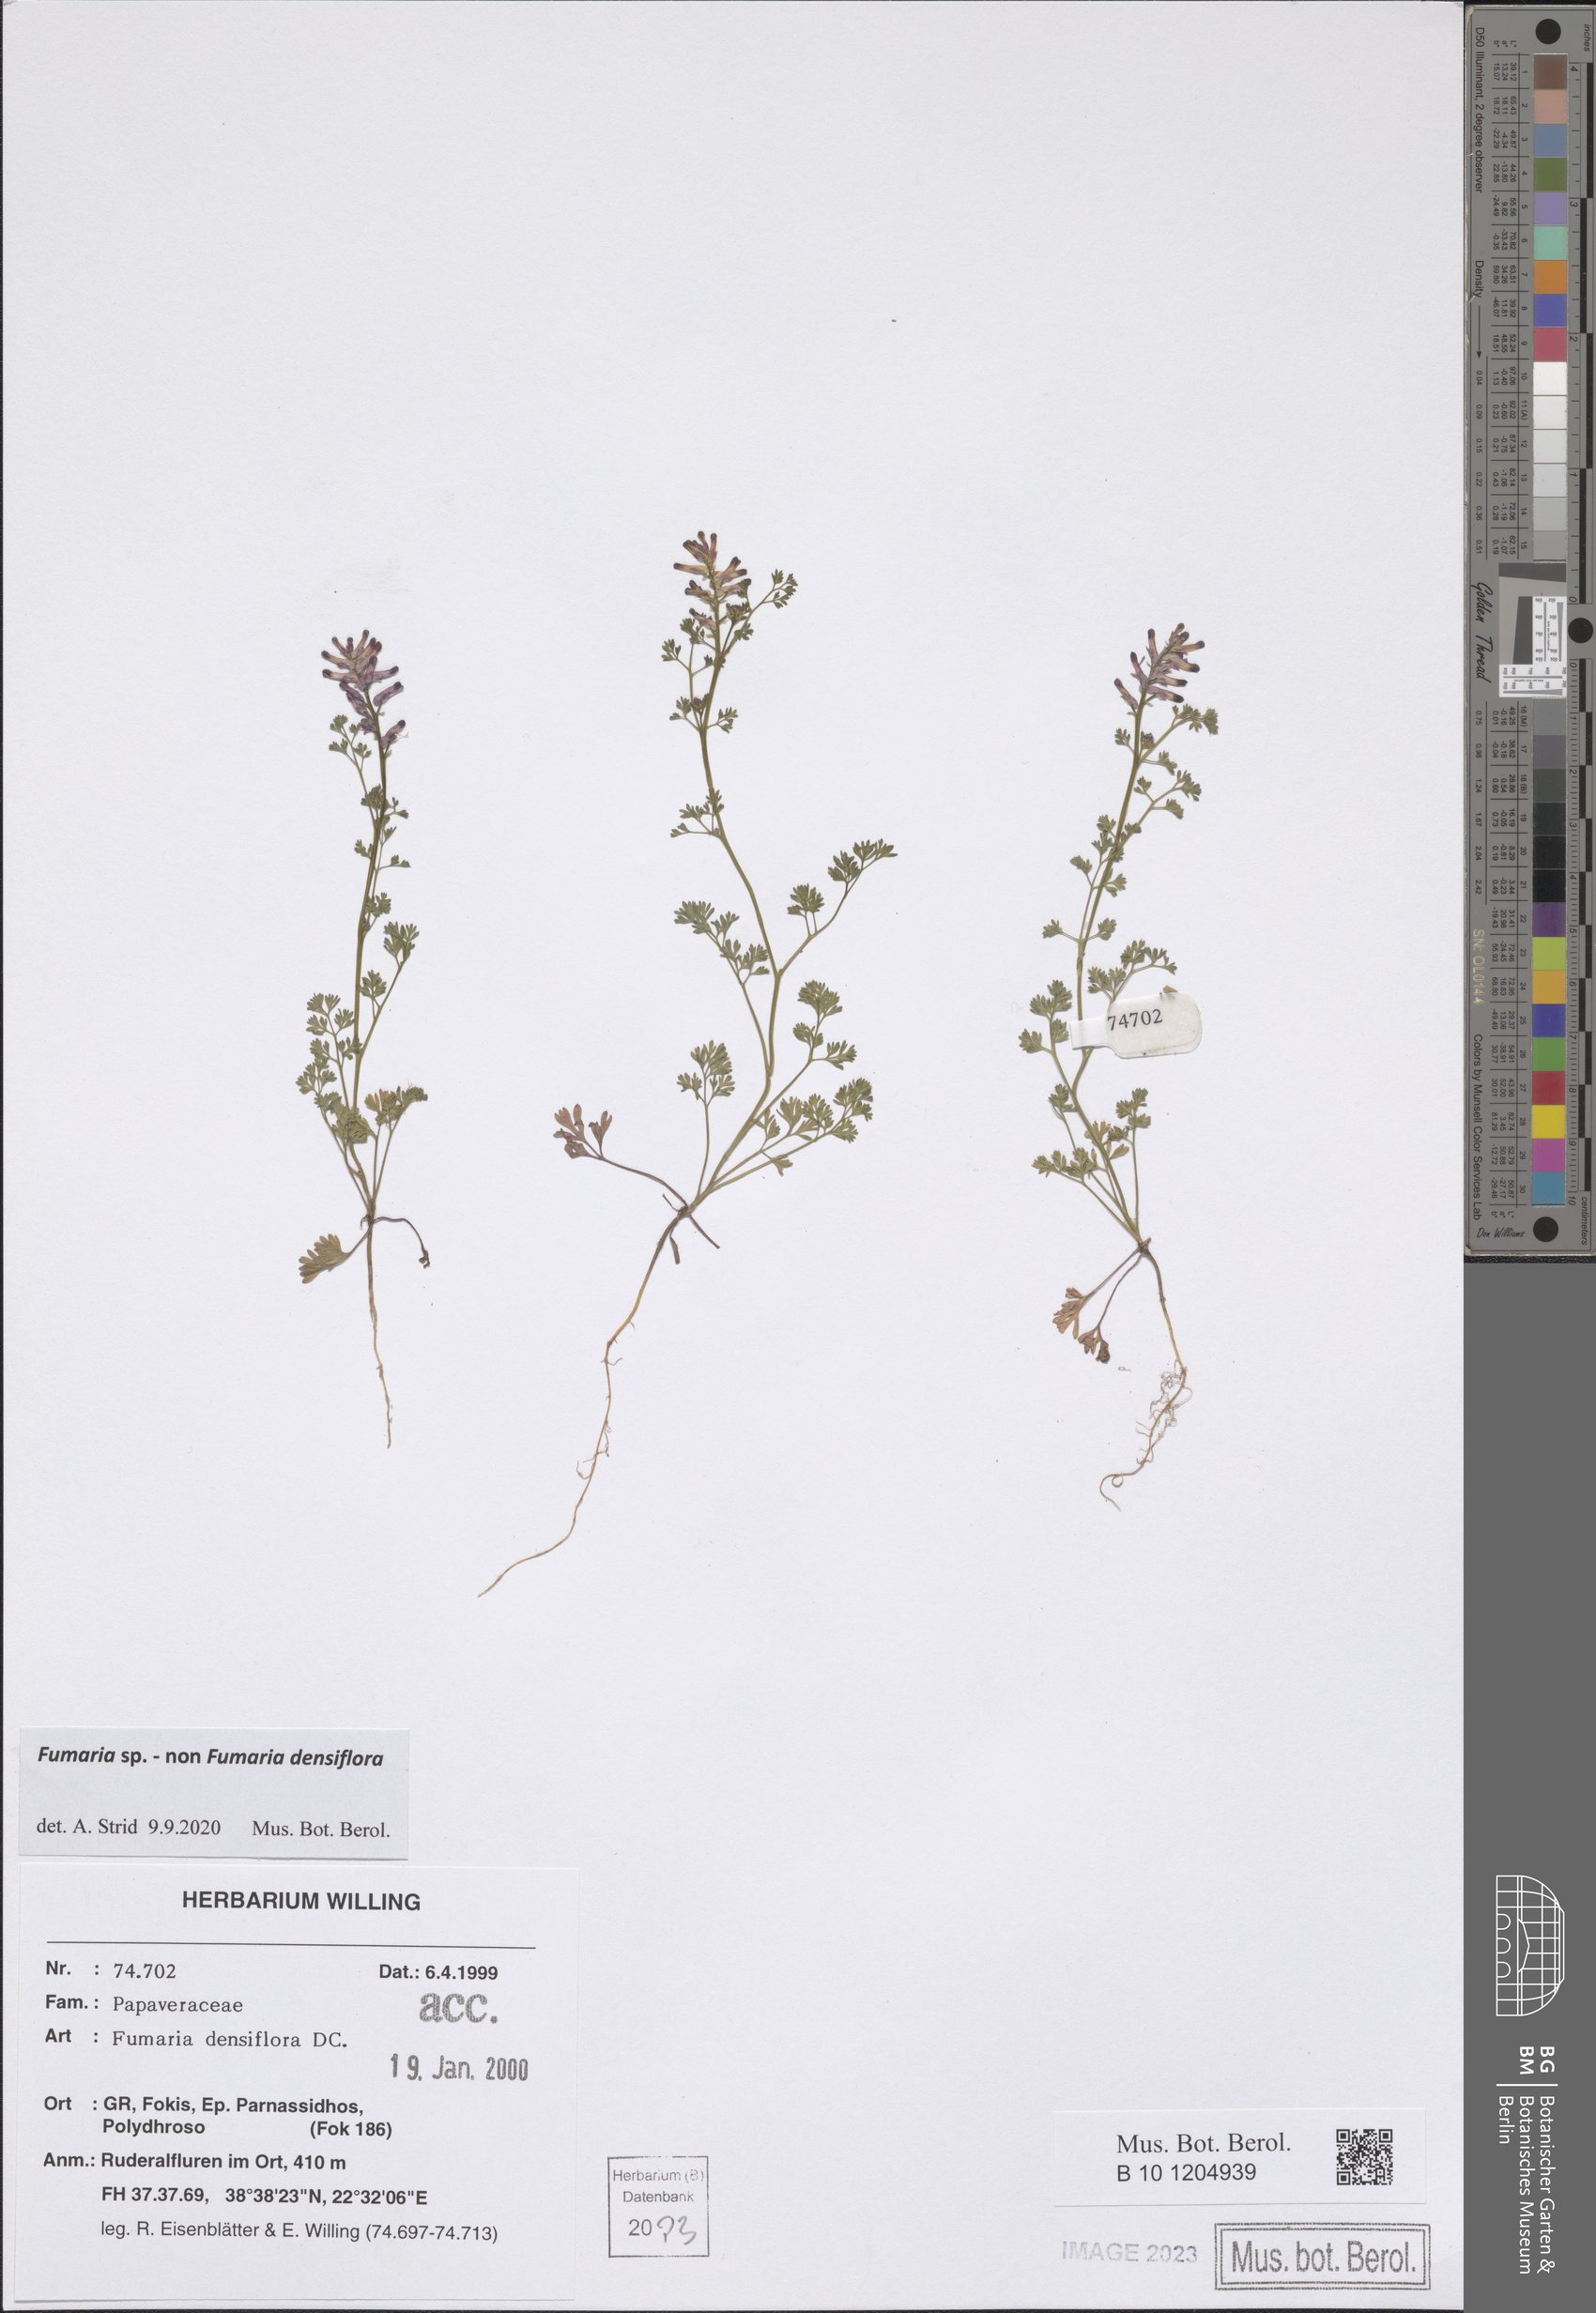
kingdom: Plantae
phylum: Tracheophyta
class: Magnoliopsida
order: Ranunculales
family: Papaveraceae
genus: Fumaria
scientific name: Fumaria
